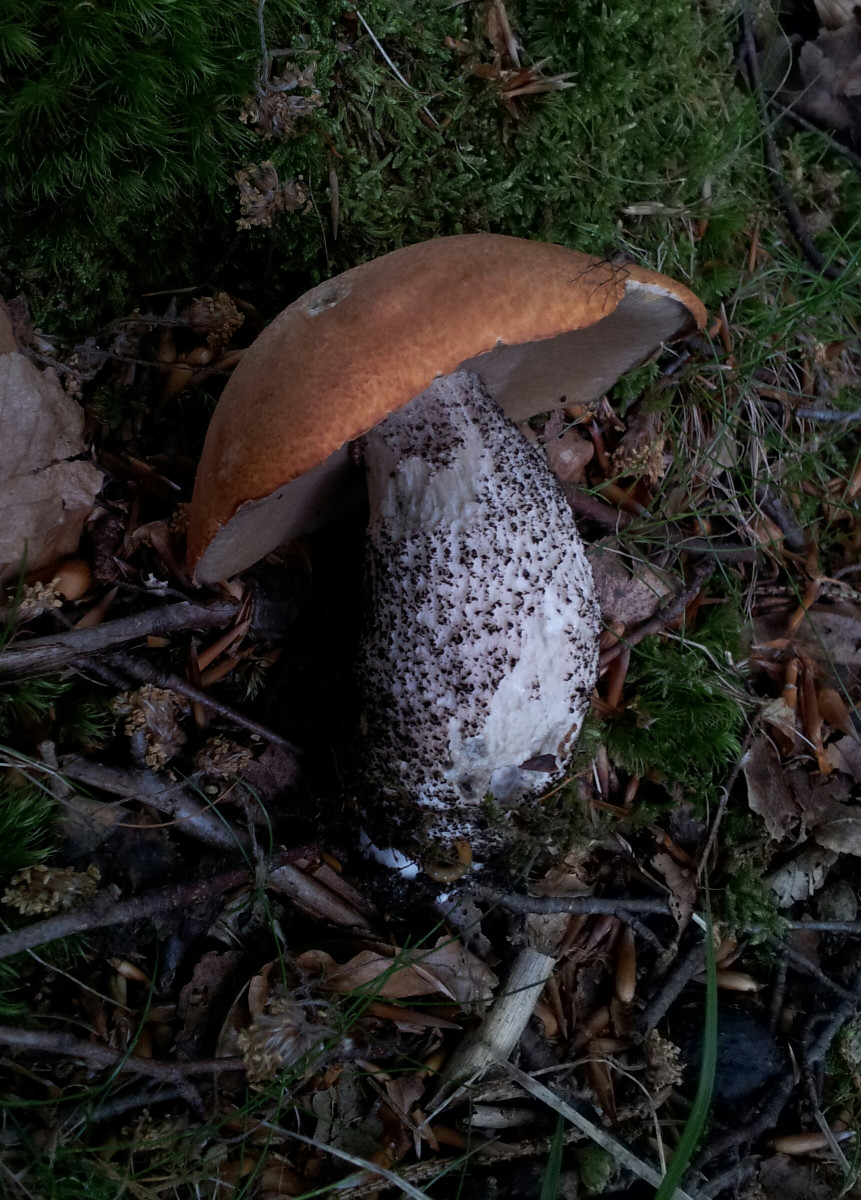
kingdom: Fungi
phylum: Basidiomycota
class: Agaricomycetes
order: Boletales
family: Boletaceae
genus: Leccinum
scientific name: Leccinum versipelle
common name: orange skælrørhat
